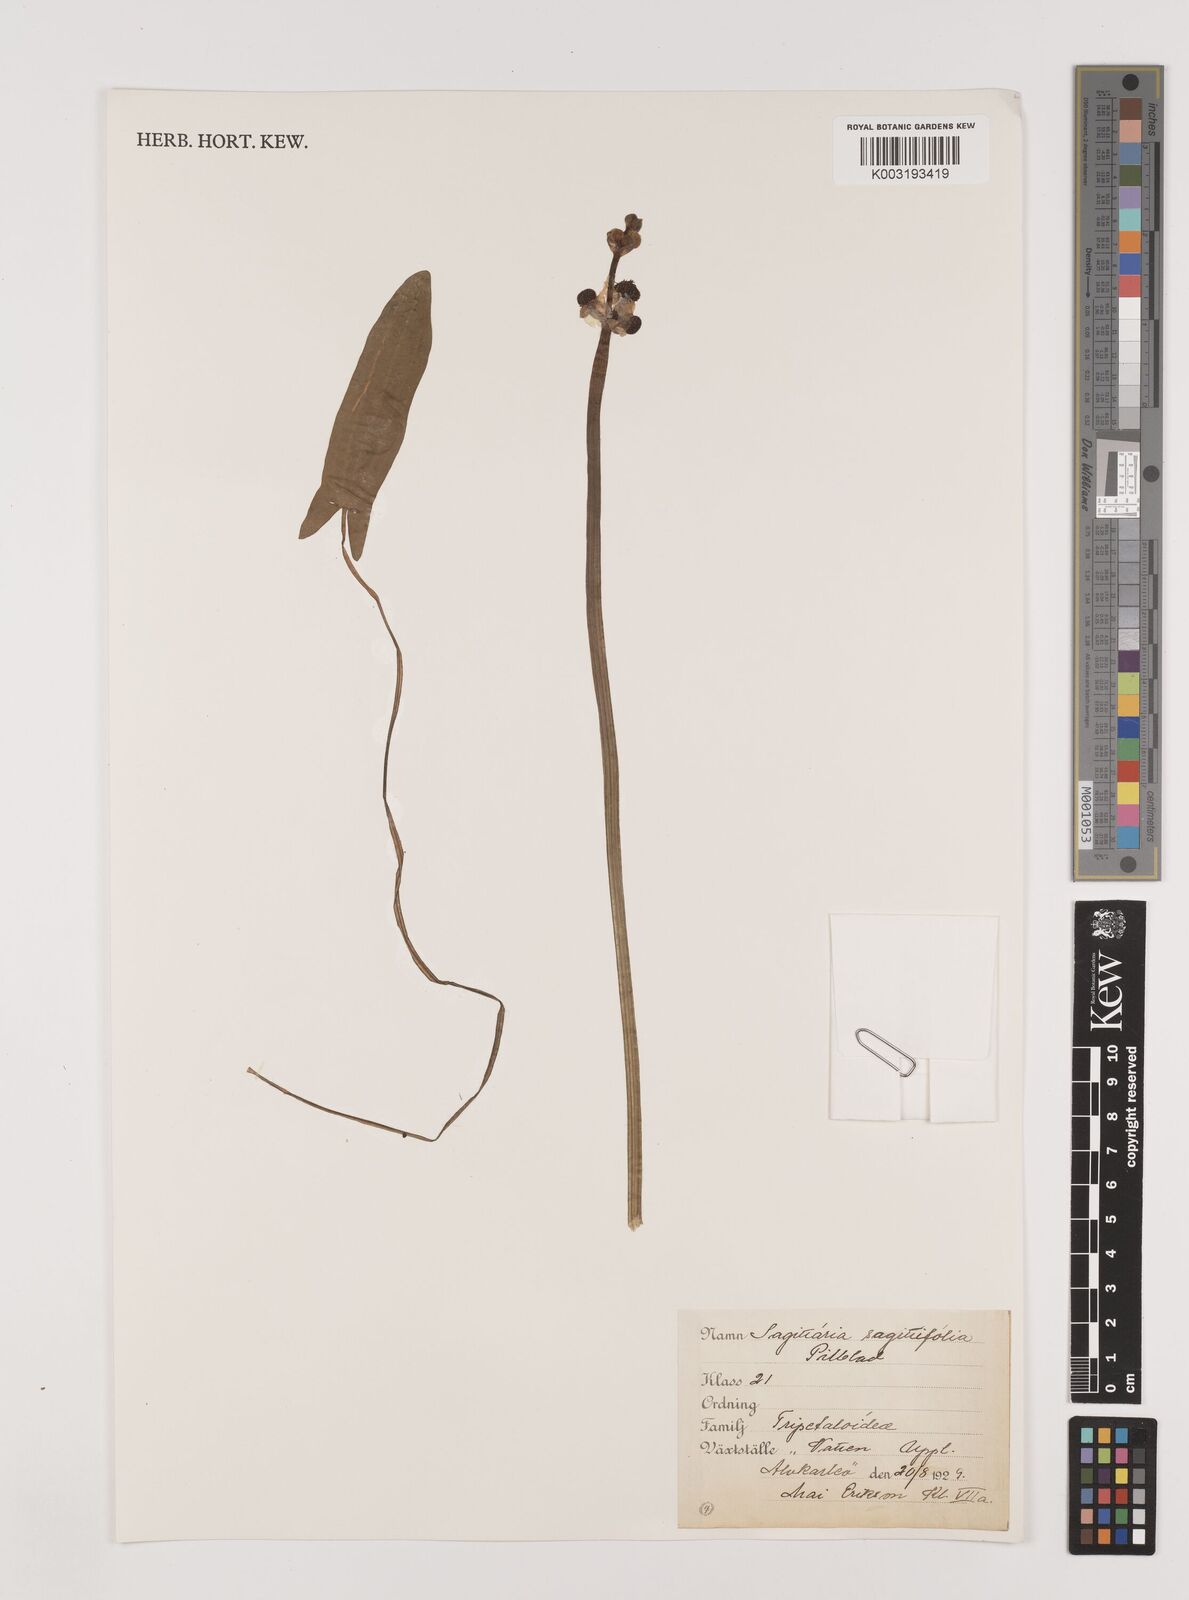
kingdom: Plantae
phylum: Tracheophyta
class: Liliopsida
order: Alismatales
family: Alismataceae
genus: Sagittaria
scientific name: Sagittaria sagittifolia
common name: Arrowhead
